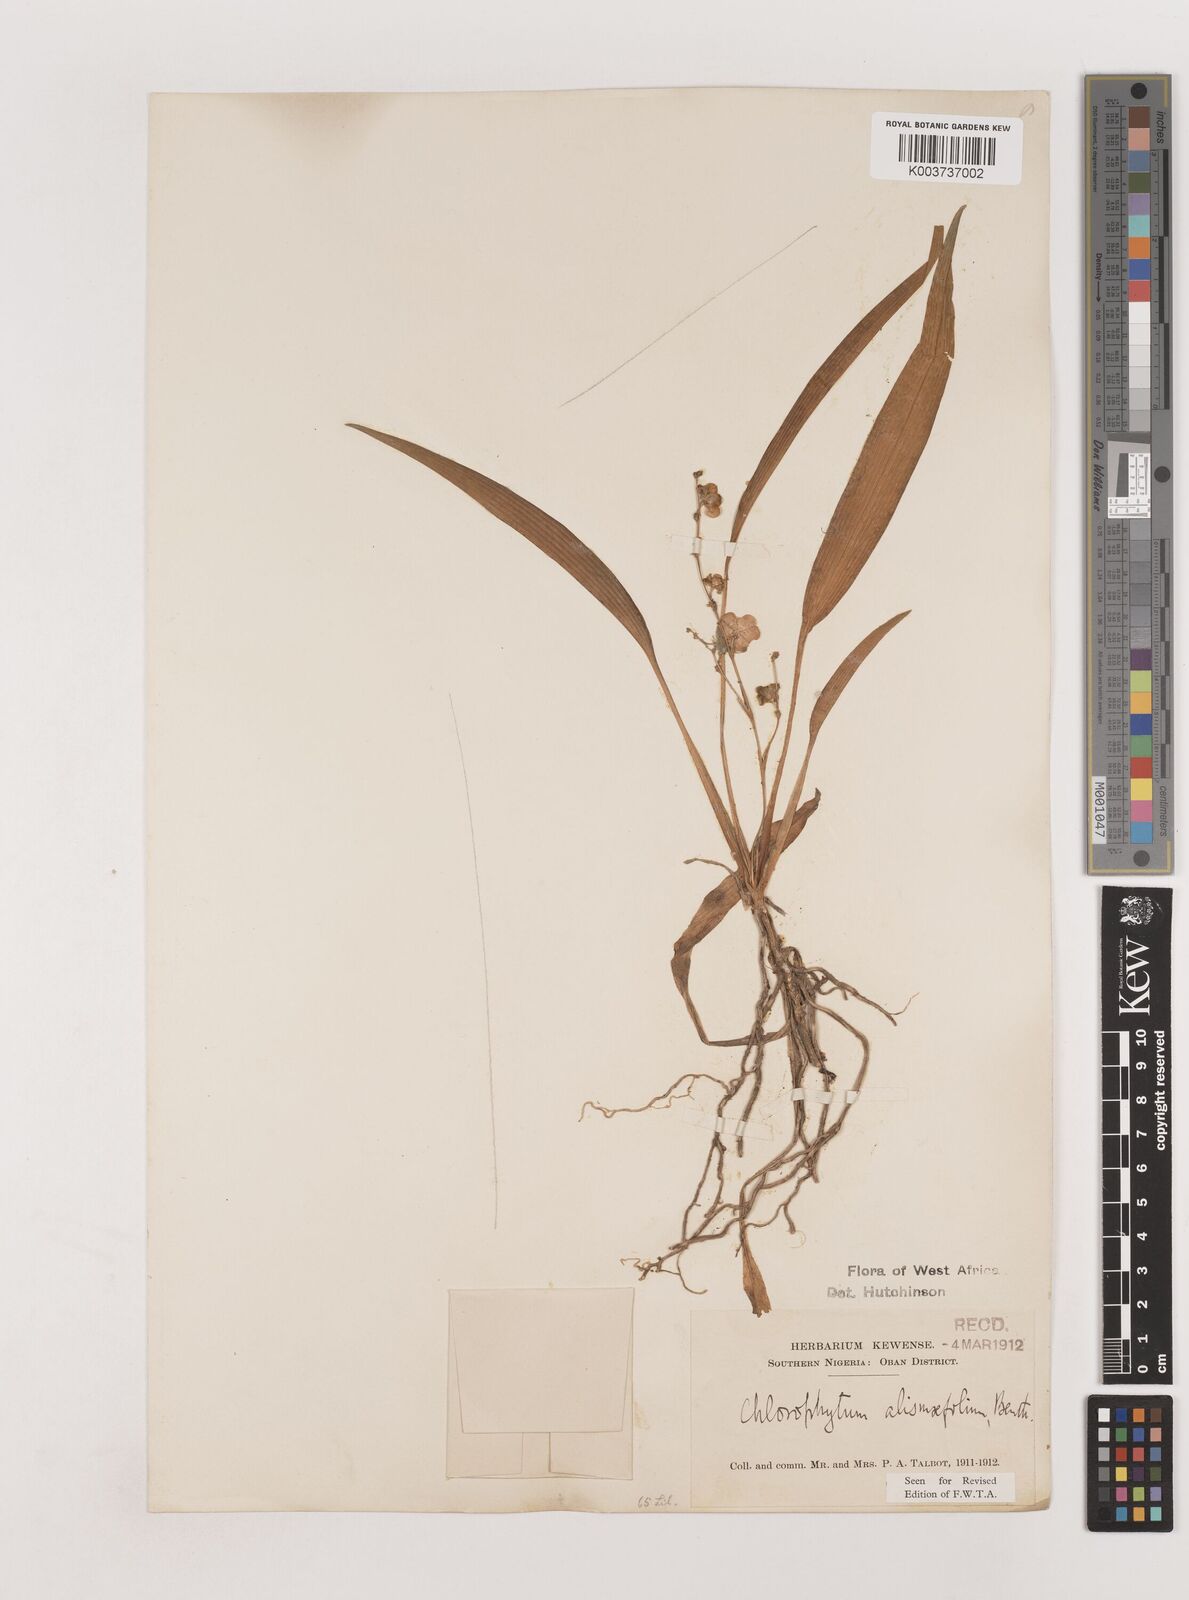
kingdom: Plantae
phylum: Tracheophyta
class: Liliopsida
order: Asparagales
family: Asparagaceae
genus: Chlorophytum
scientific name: Chlorophytum alismifolium
